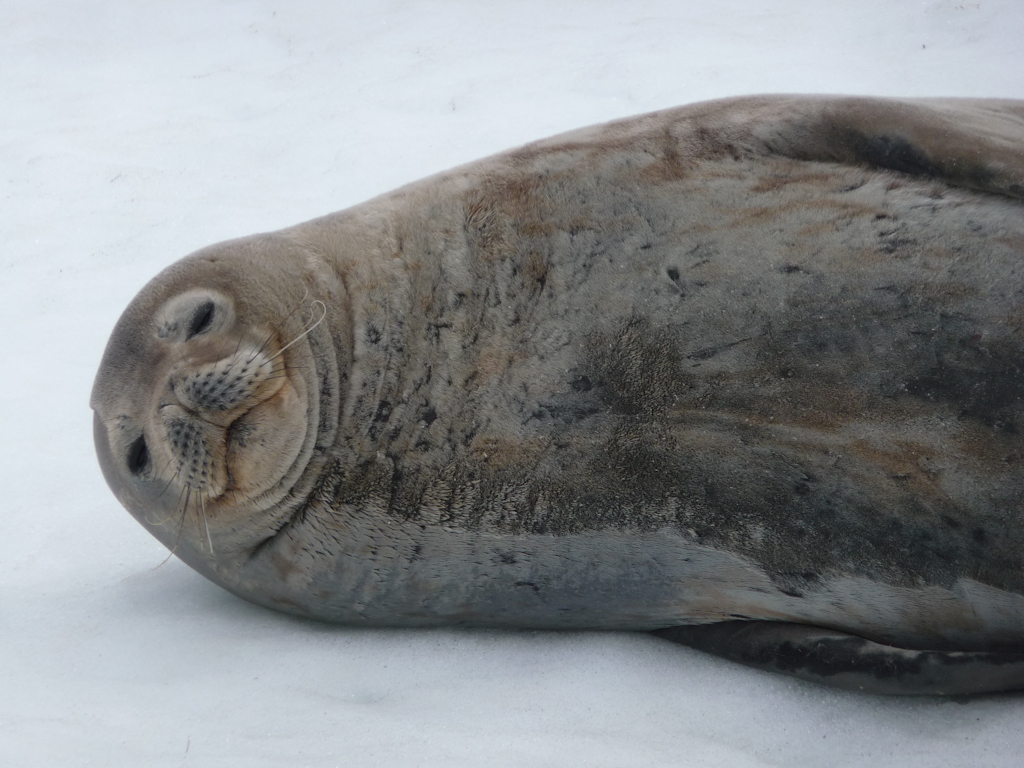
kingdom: Animalia
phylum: Chordata
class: Mammalia
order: Carnivora
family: Phocidae
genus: Leptonychotes
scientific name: Leptonychotes weddellii
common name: Weddell Seal
